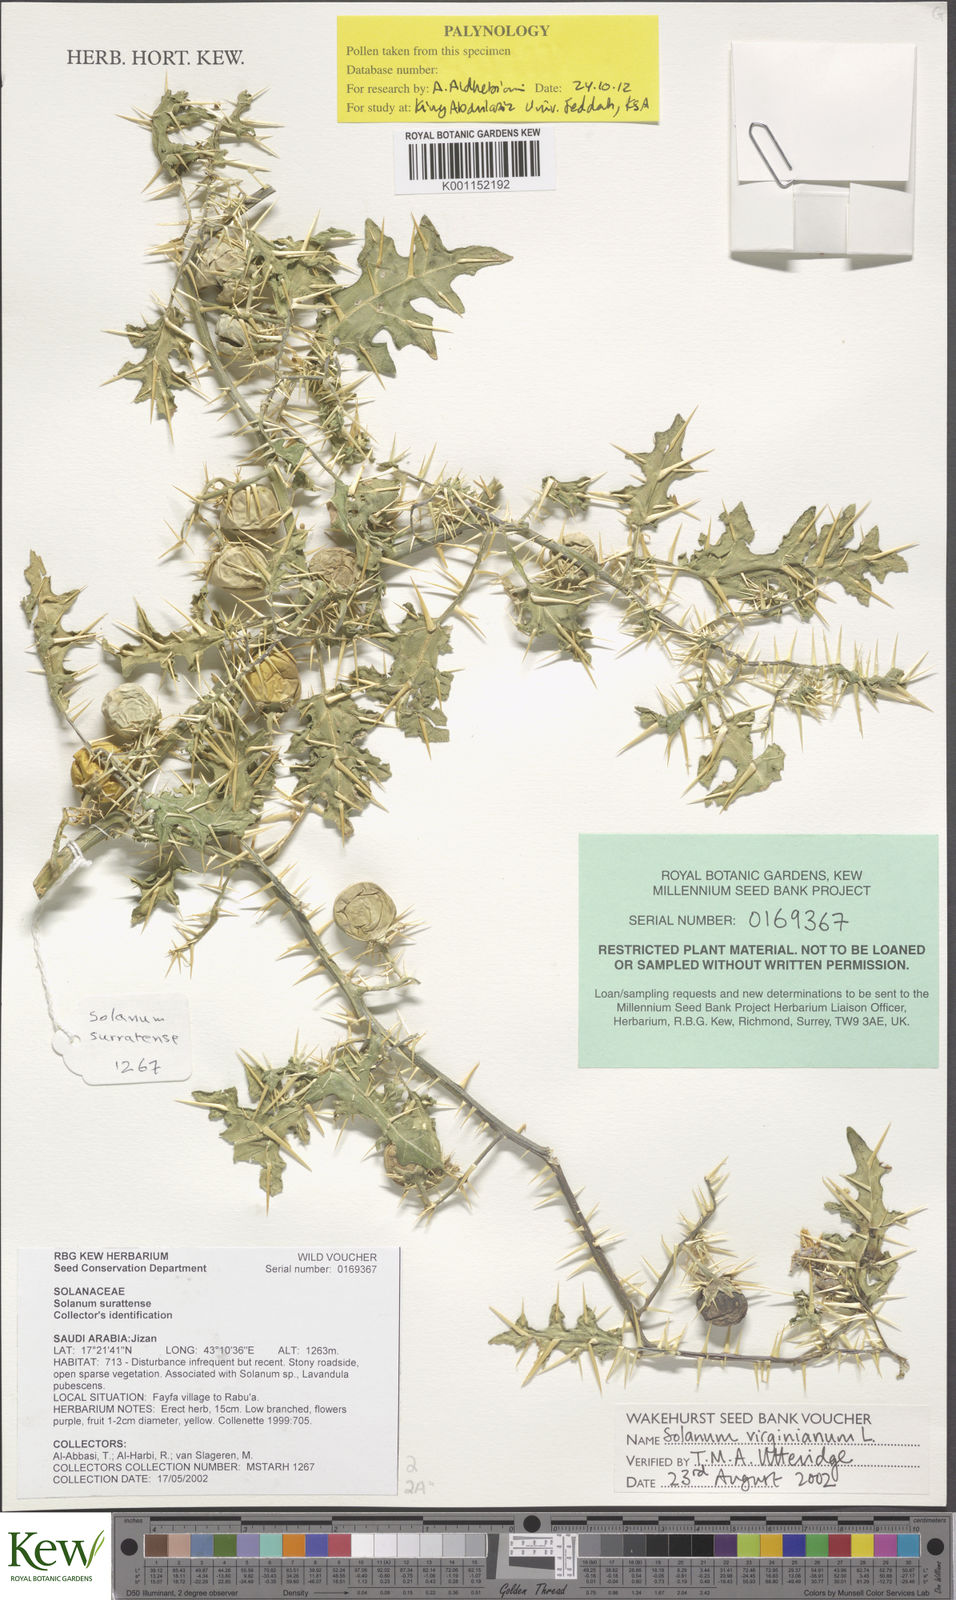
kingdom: Plantae
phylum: Tracheophyta
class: Magnoliopsida
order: Solanales
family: Solanaceae
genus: Solanum
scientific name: Solanum virginianum
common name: Surattense nightshade
